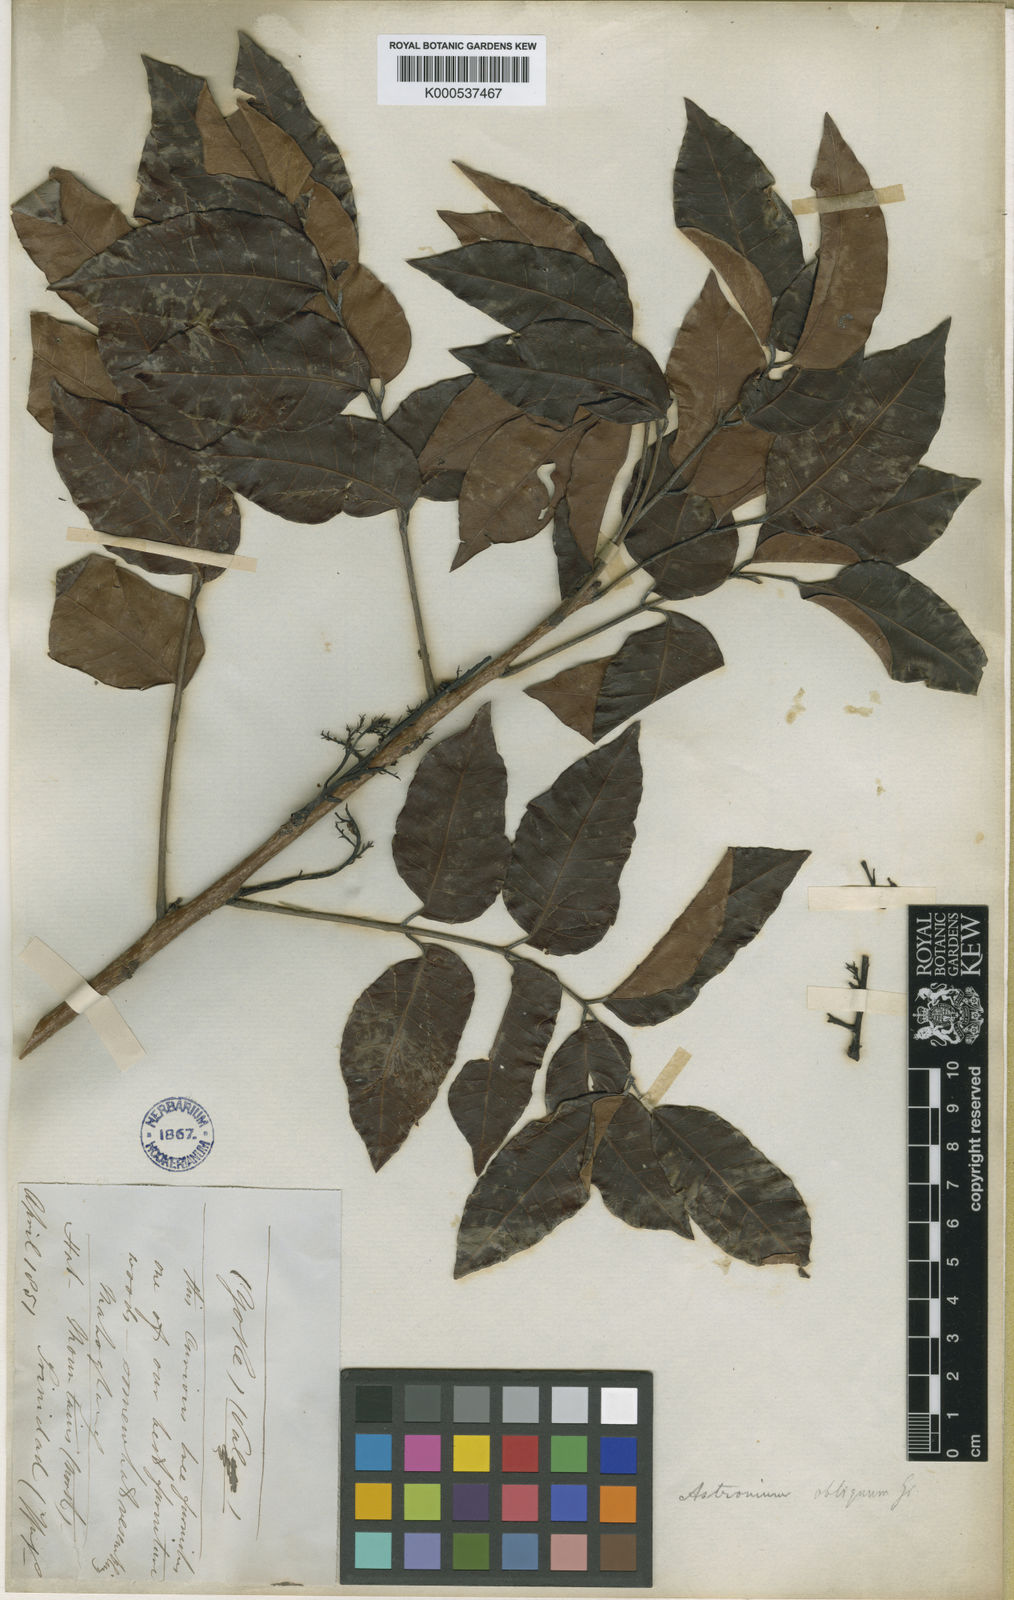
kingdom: Plantae
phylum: Tracheophyta
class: Magnoliopsida
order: Sapindales
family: Anacardiaceae
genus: Astronium
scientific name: Astronium obliquum
